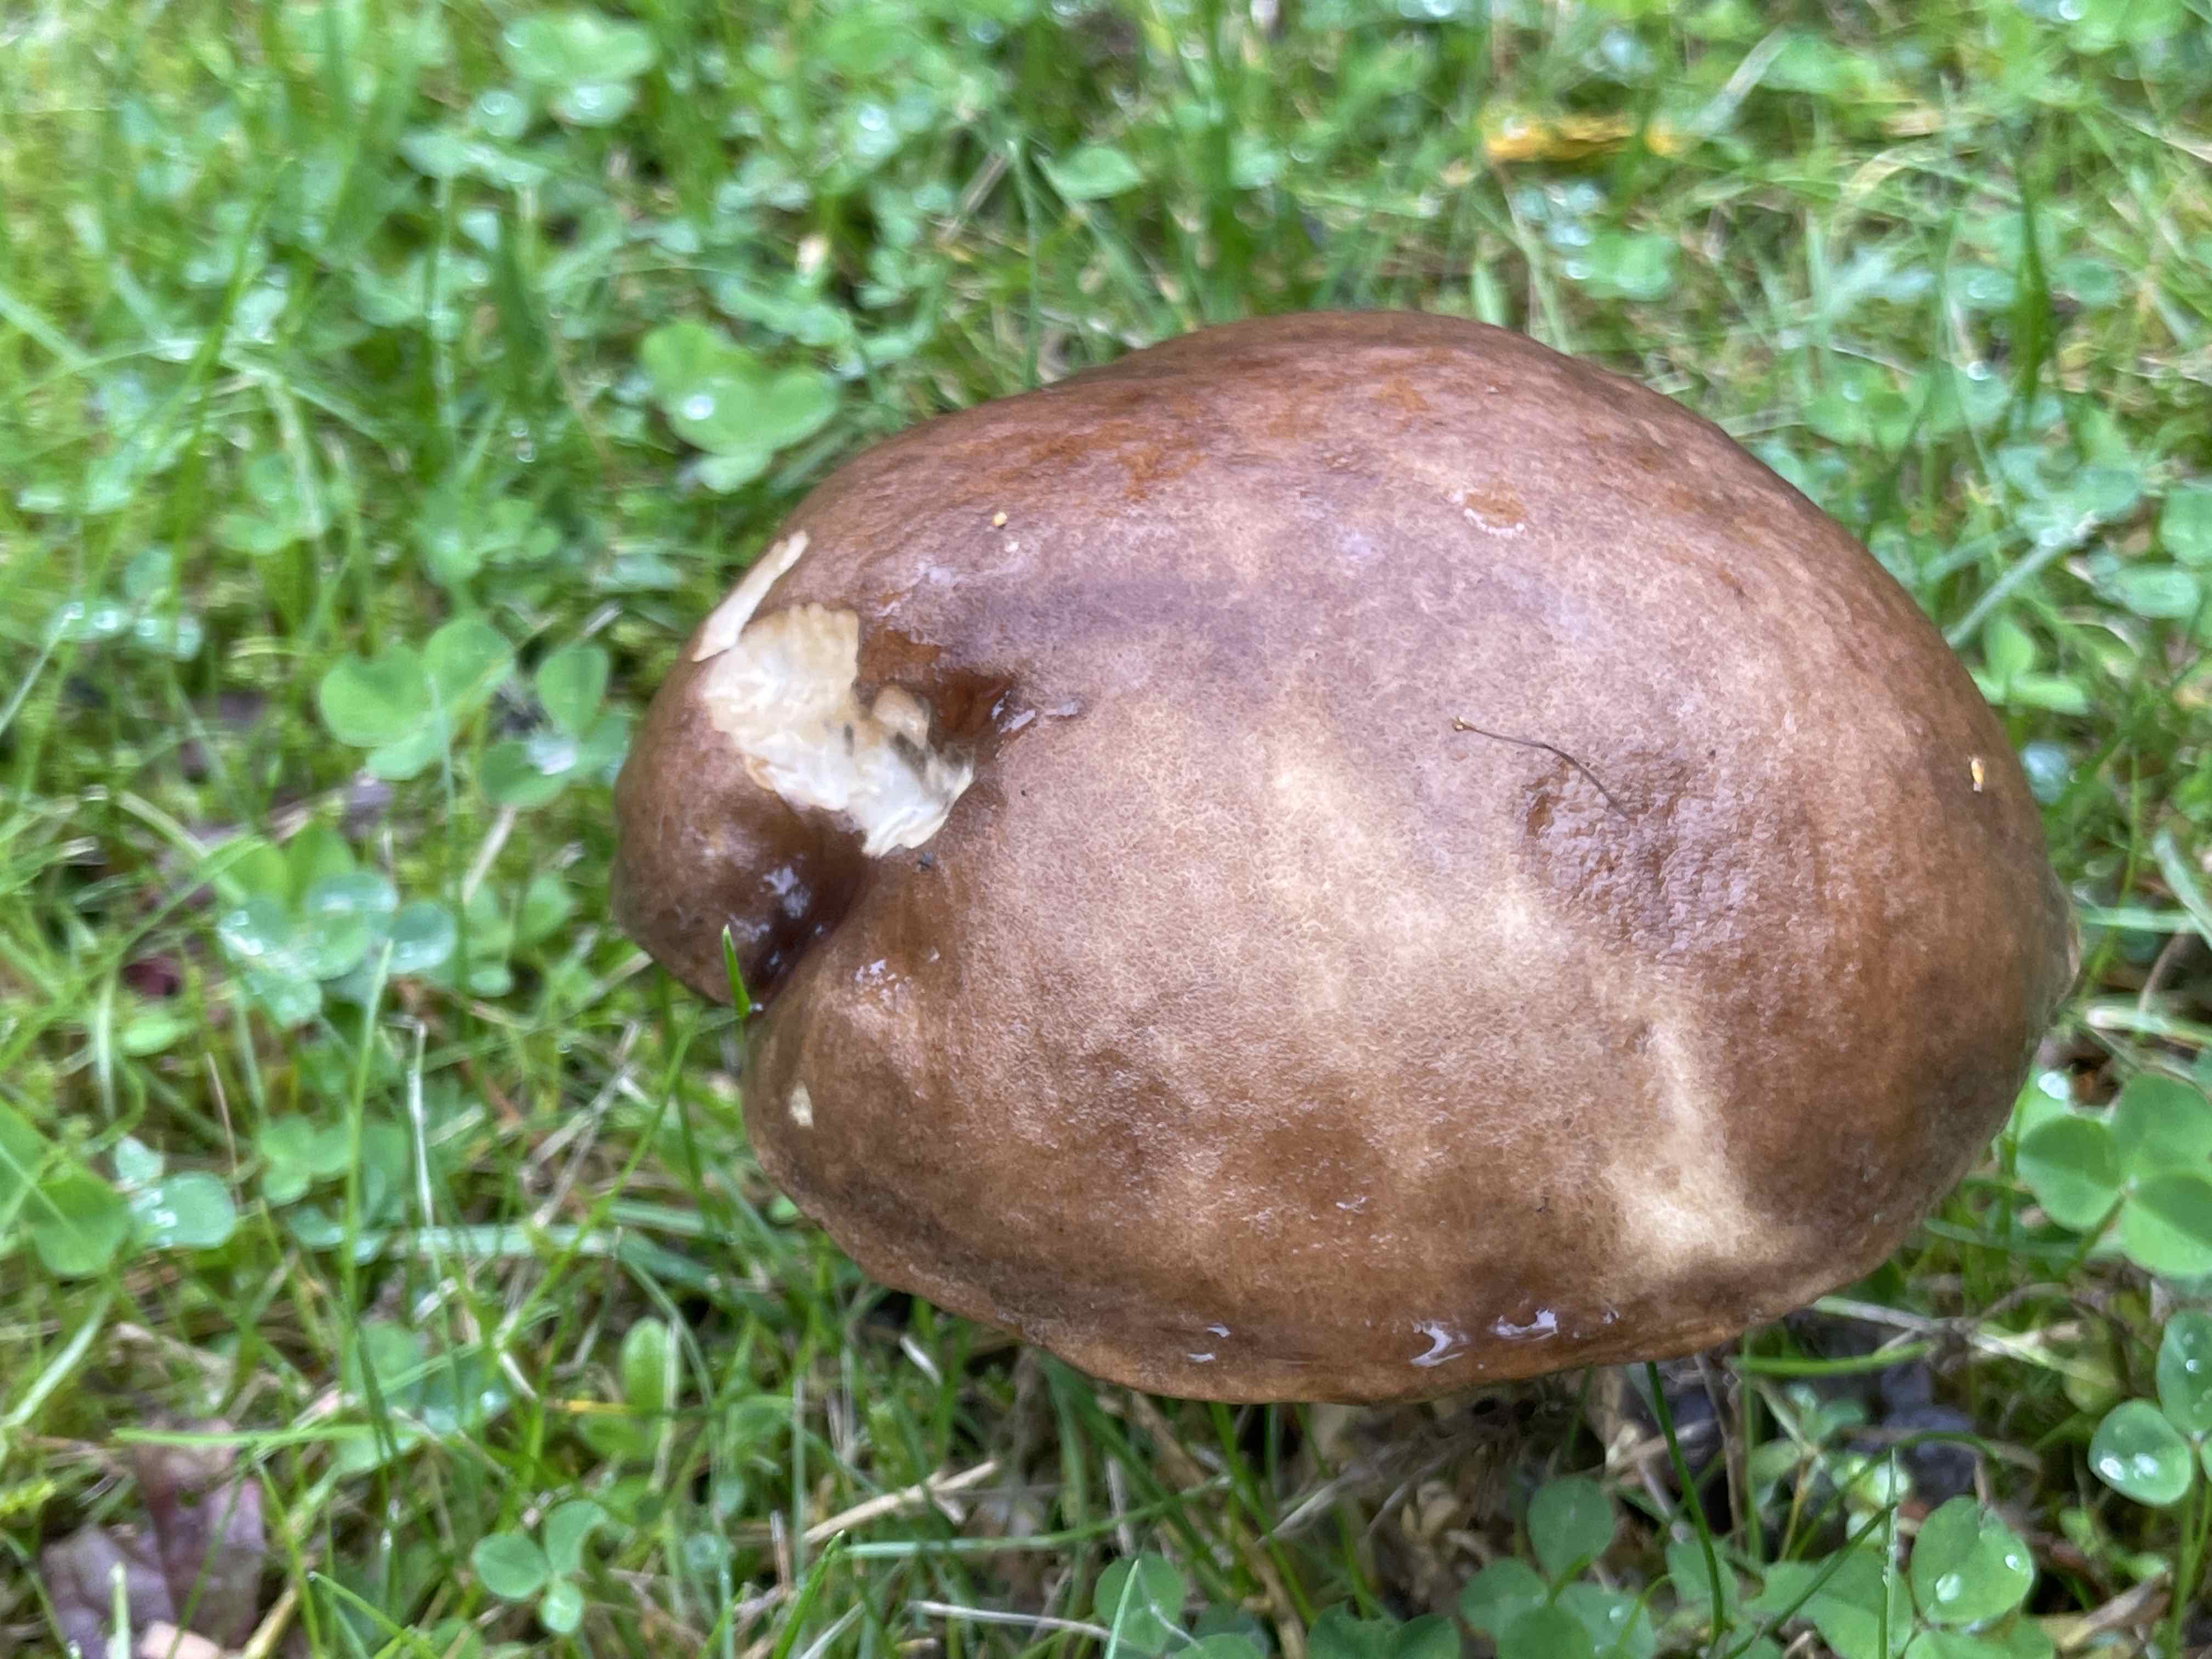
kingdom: Fungi
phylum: Basidiomycota
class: Agaricomycetes
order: Boletales
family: Boletaceae
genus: Leccinum
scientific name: Leccinum scabrum
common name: brun skælrørhat
